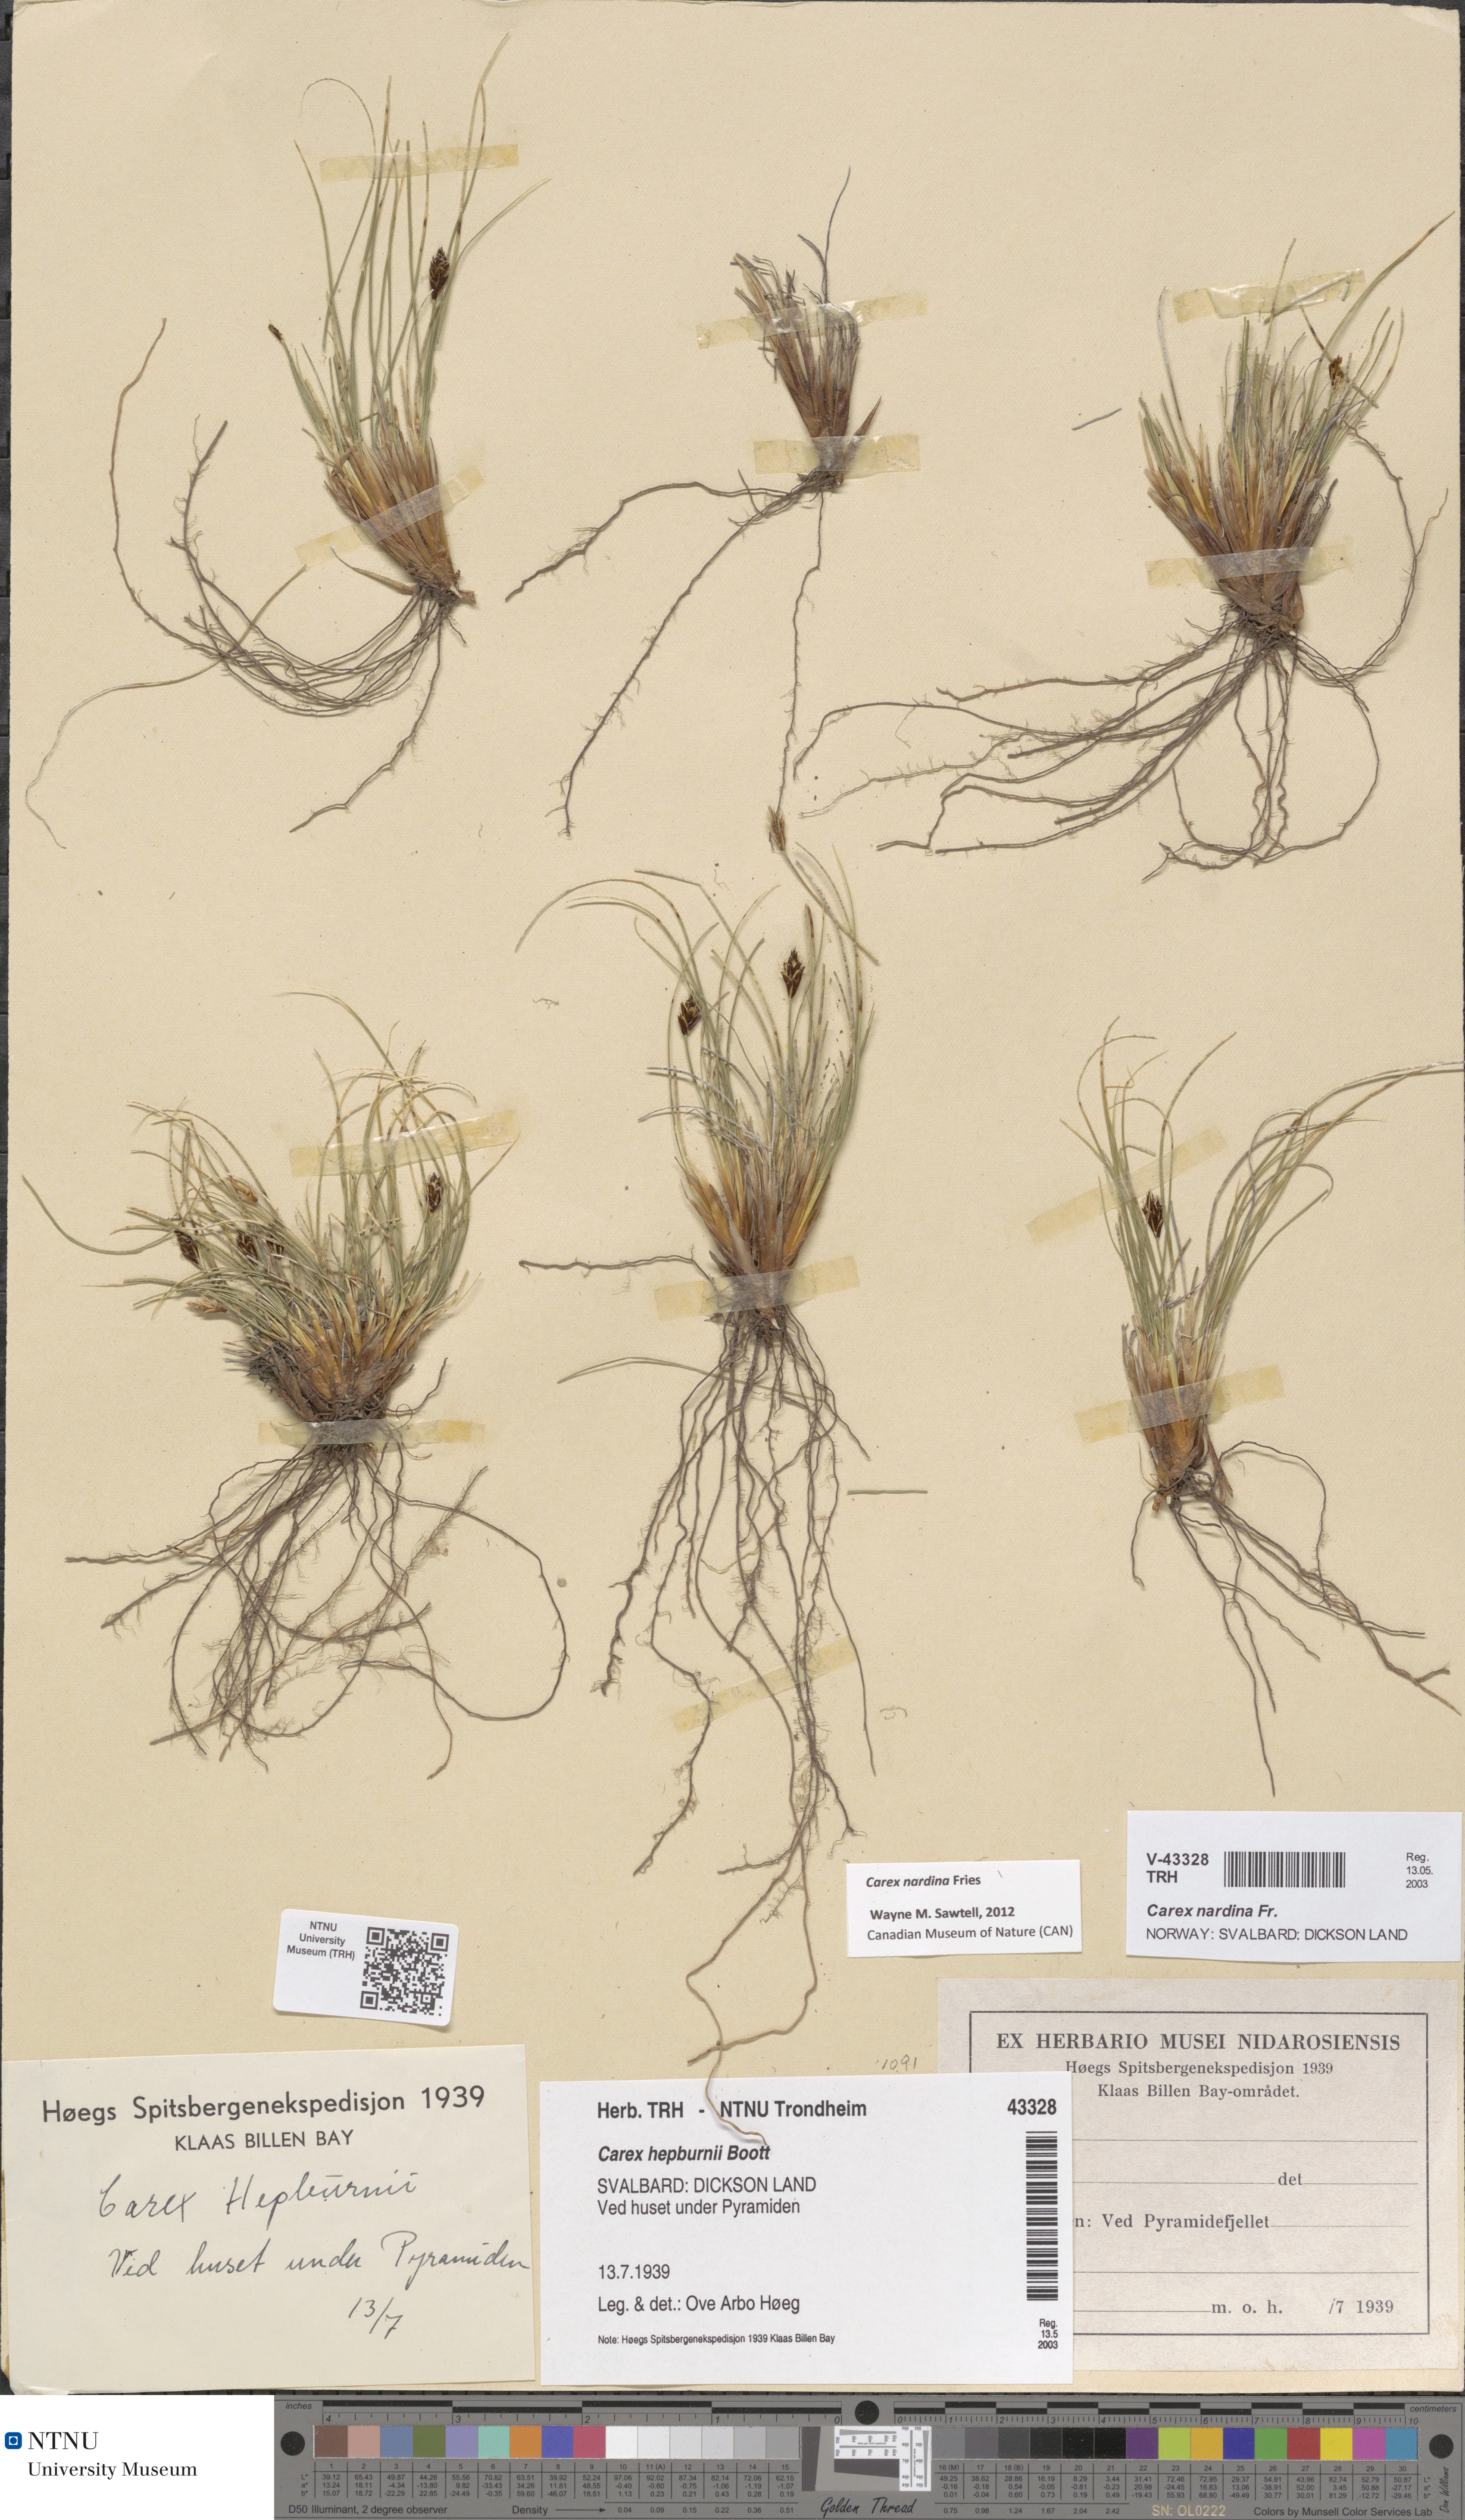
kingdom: Plantae
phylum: Tracheophyta
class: Liliopsida
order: Poales
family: Cyperaceae
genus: Carex
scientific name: Carex nardina
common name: Nard sedge
